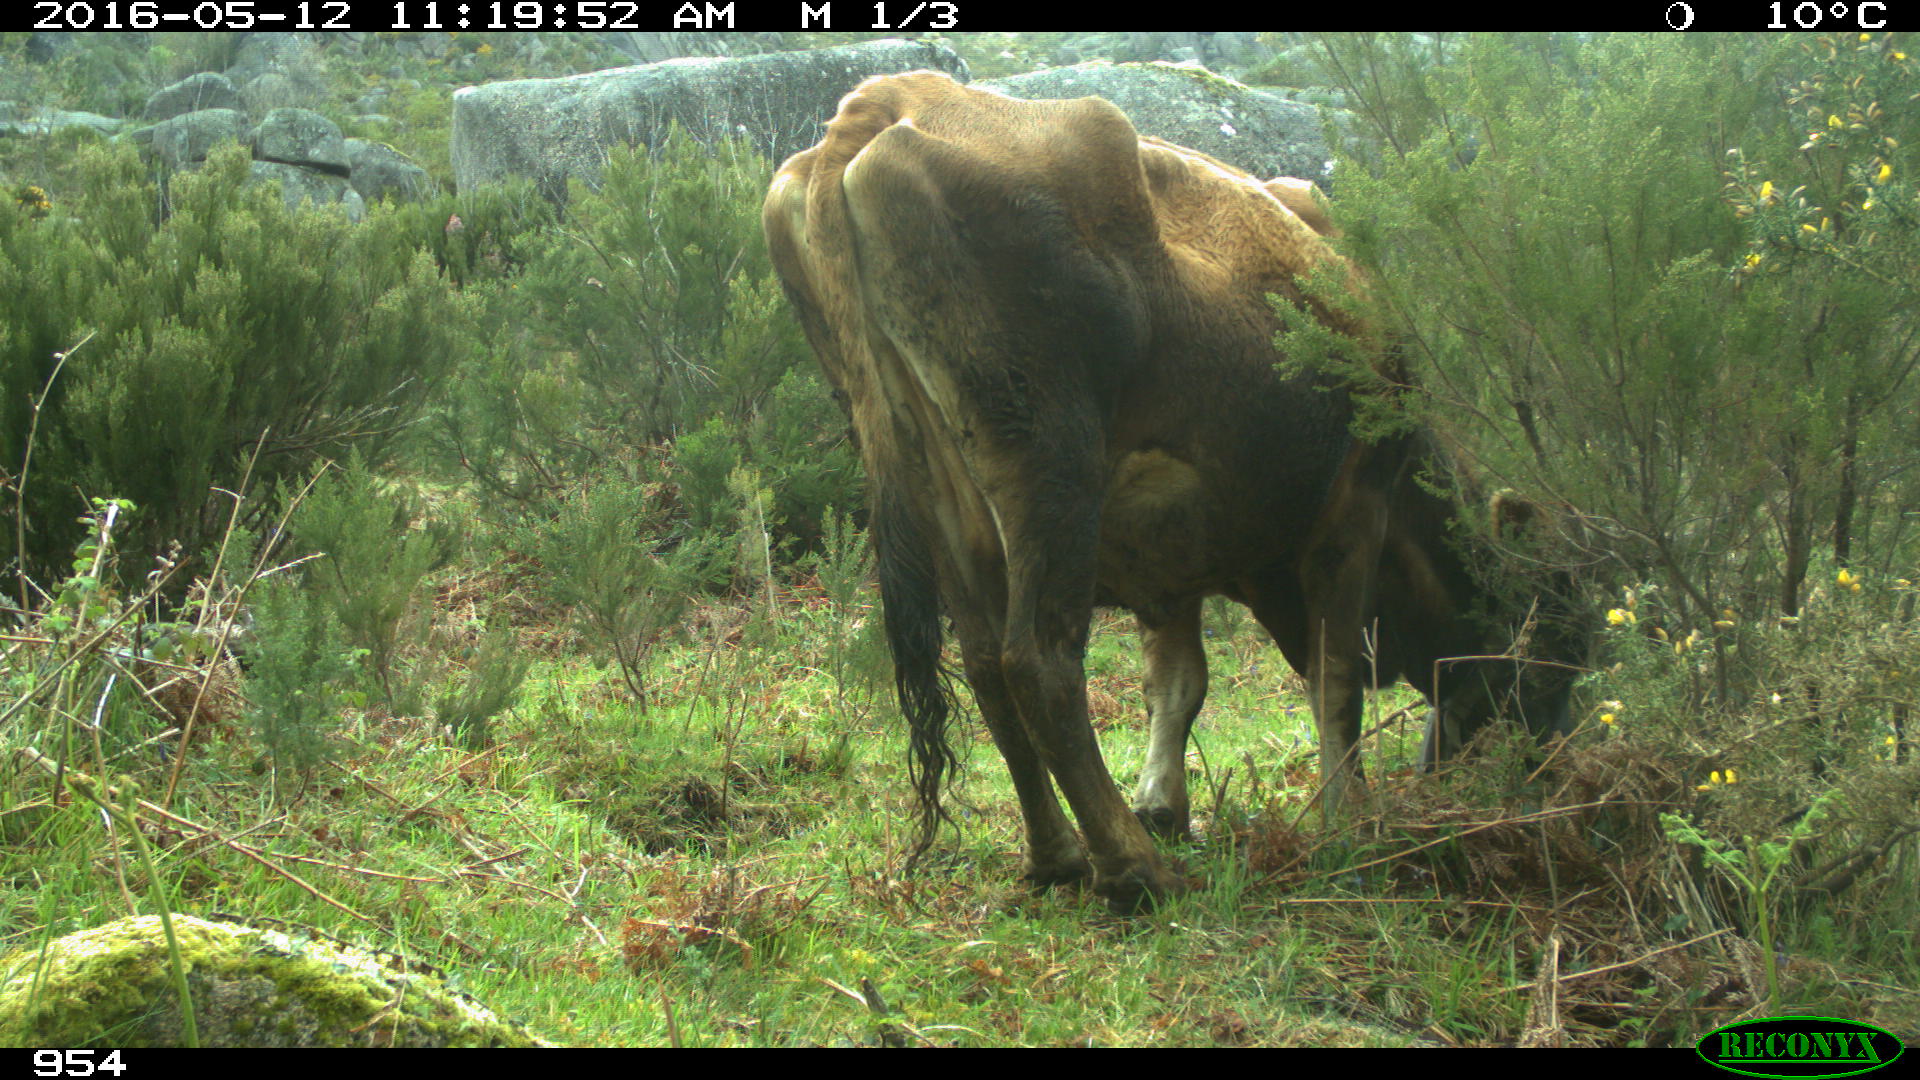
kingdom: Animalia
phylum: Chordata
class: Mammalia
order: Artiodactyla
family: Bovidae
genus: Bos
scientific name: Bos taurus
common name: Domesticated cattle
